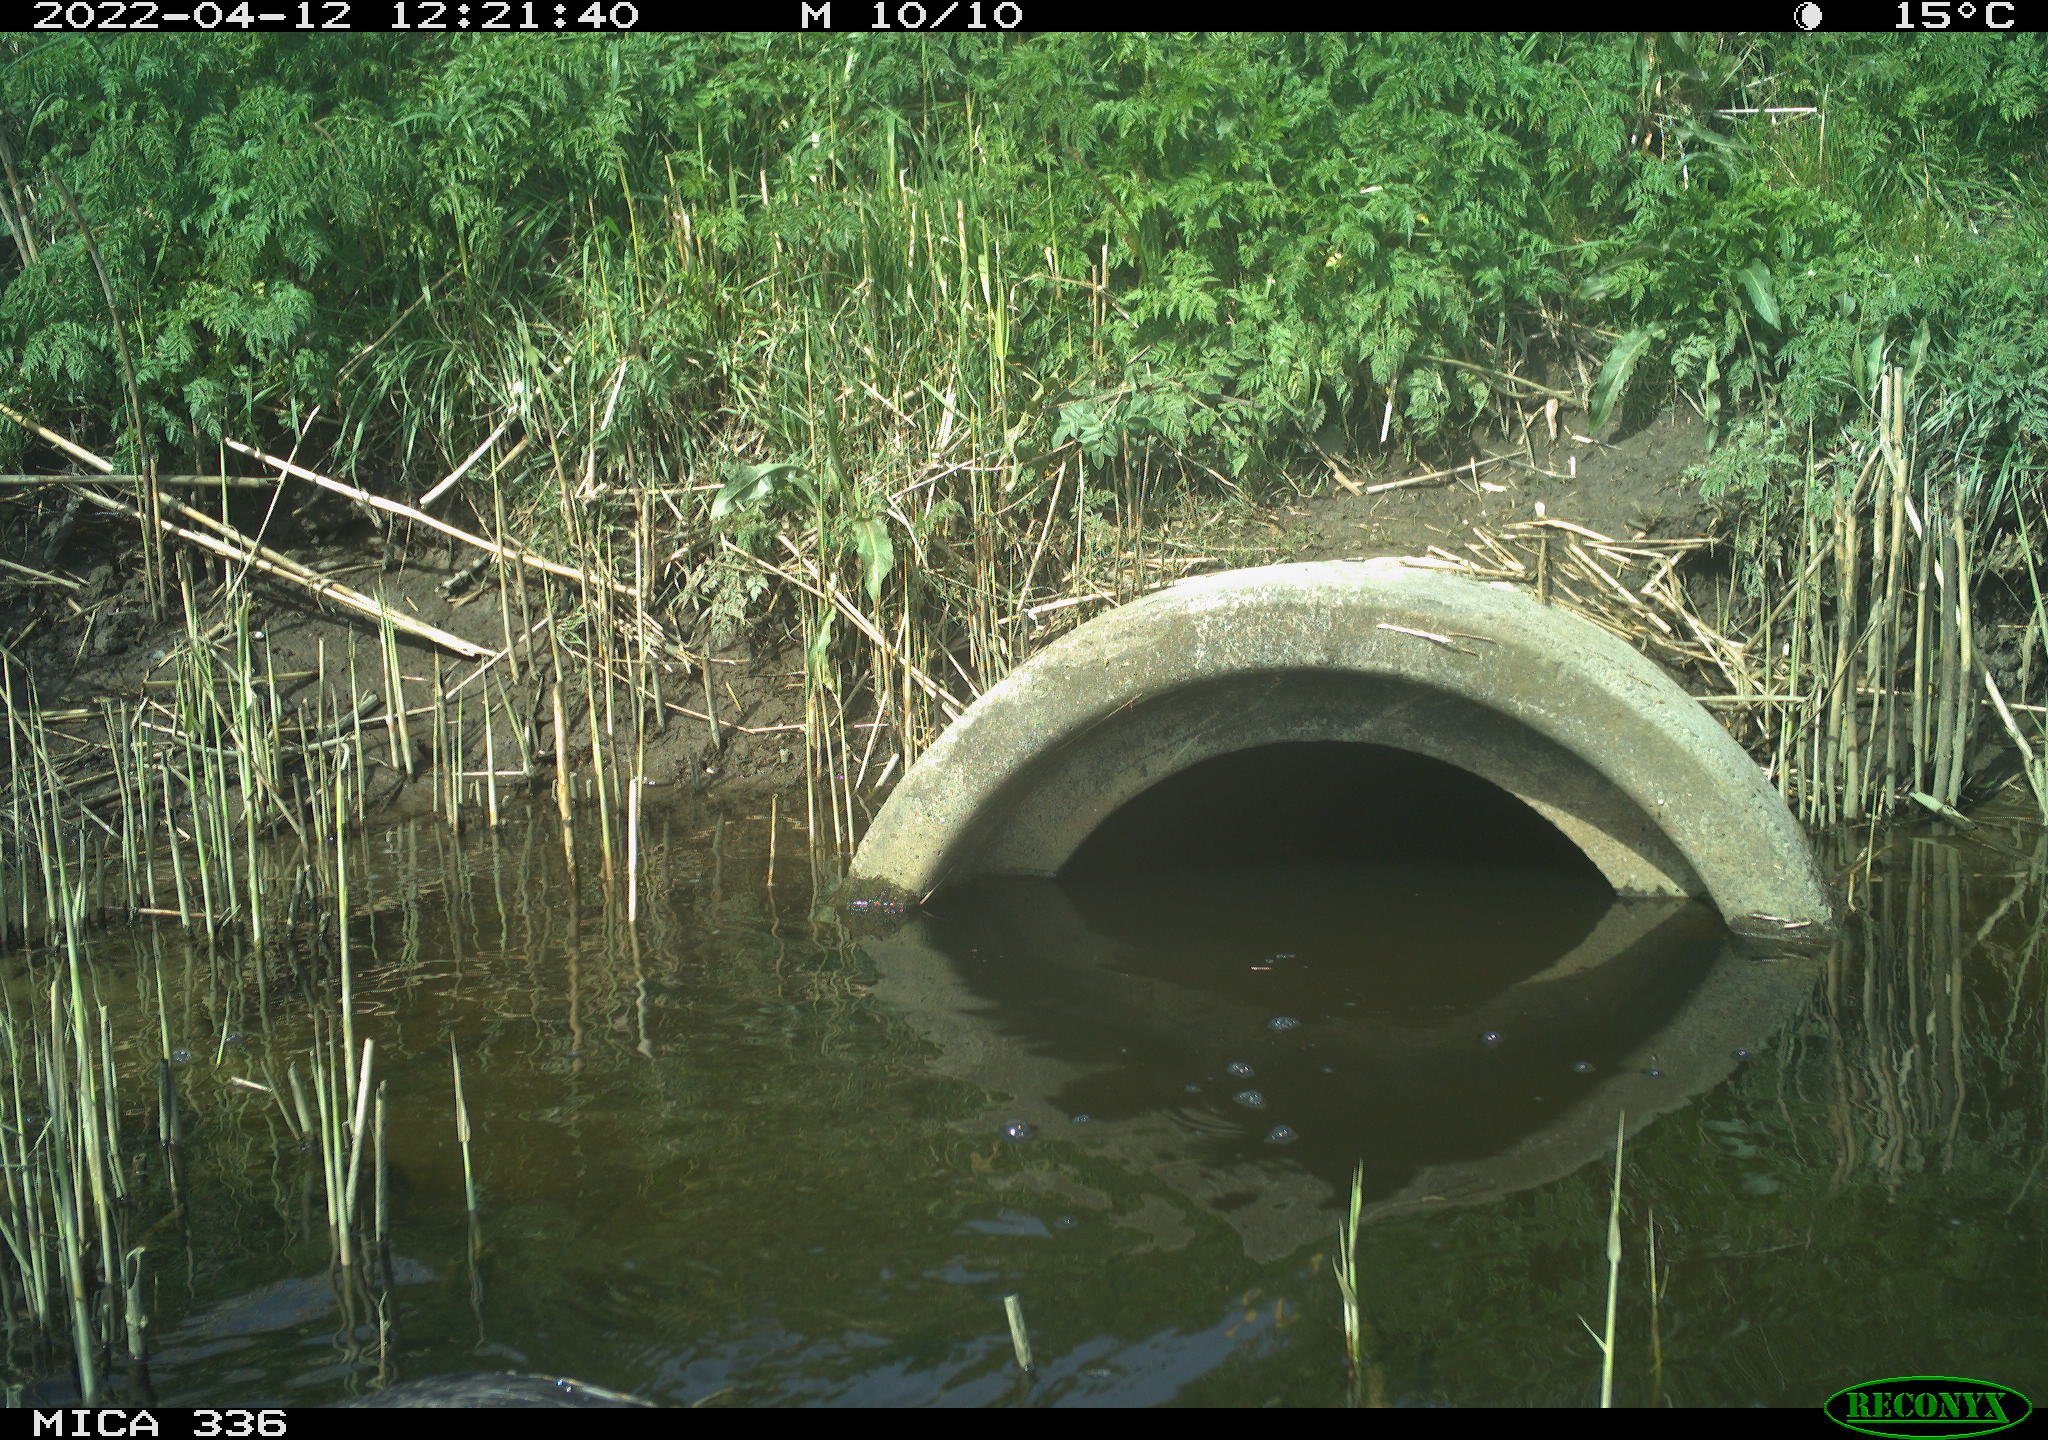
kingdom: Animalia
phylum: Chordata
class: Aves
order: Anseriformes
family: Anatidae
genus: Mareca
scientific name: Mareca strepera
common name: Gadwall
